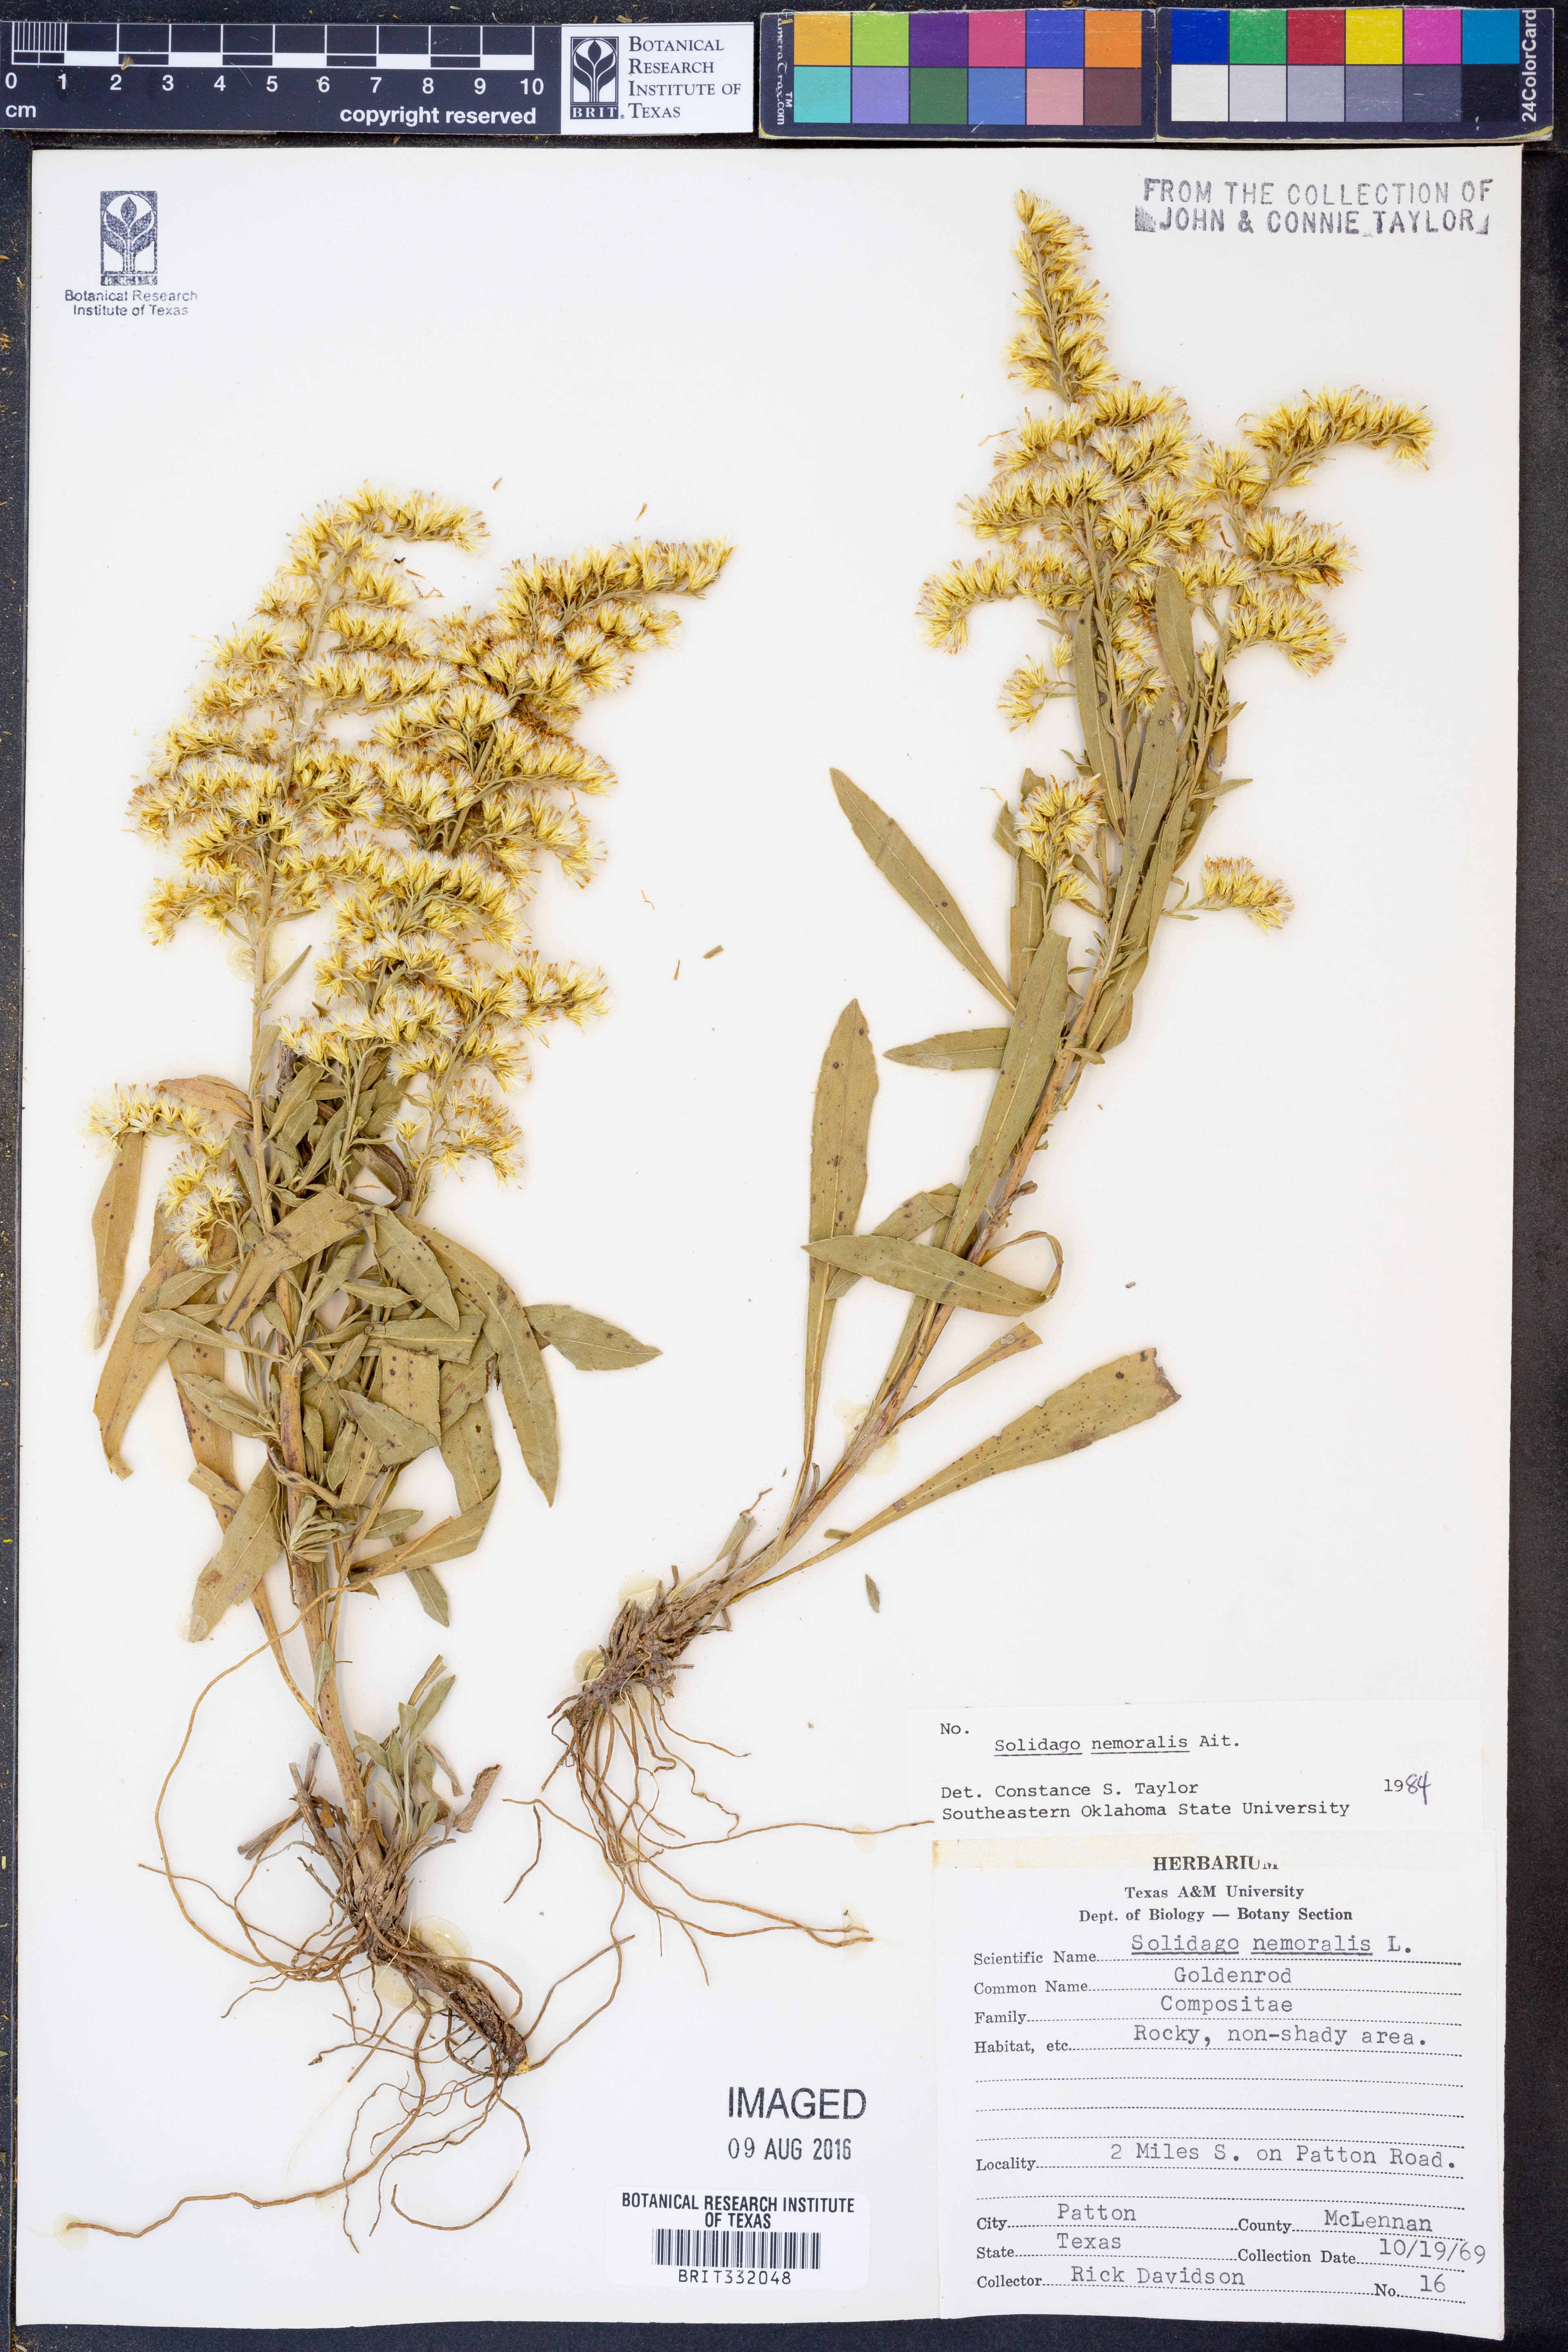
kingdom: Plantae
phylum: Tracheophyta
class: Magnoliopsida
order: Asterales
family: Asteraceae
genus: Solidago
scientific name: Solidago nemoralis
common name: Grey goldenrod
